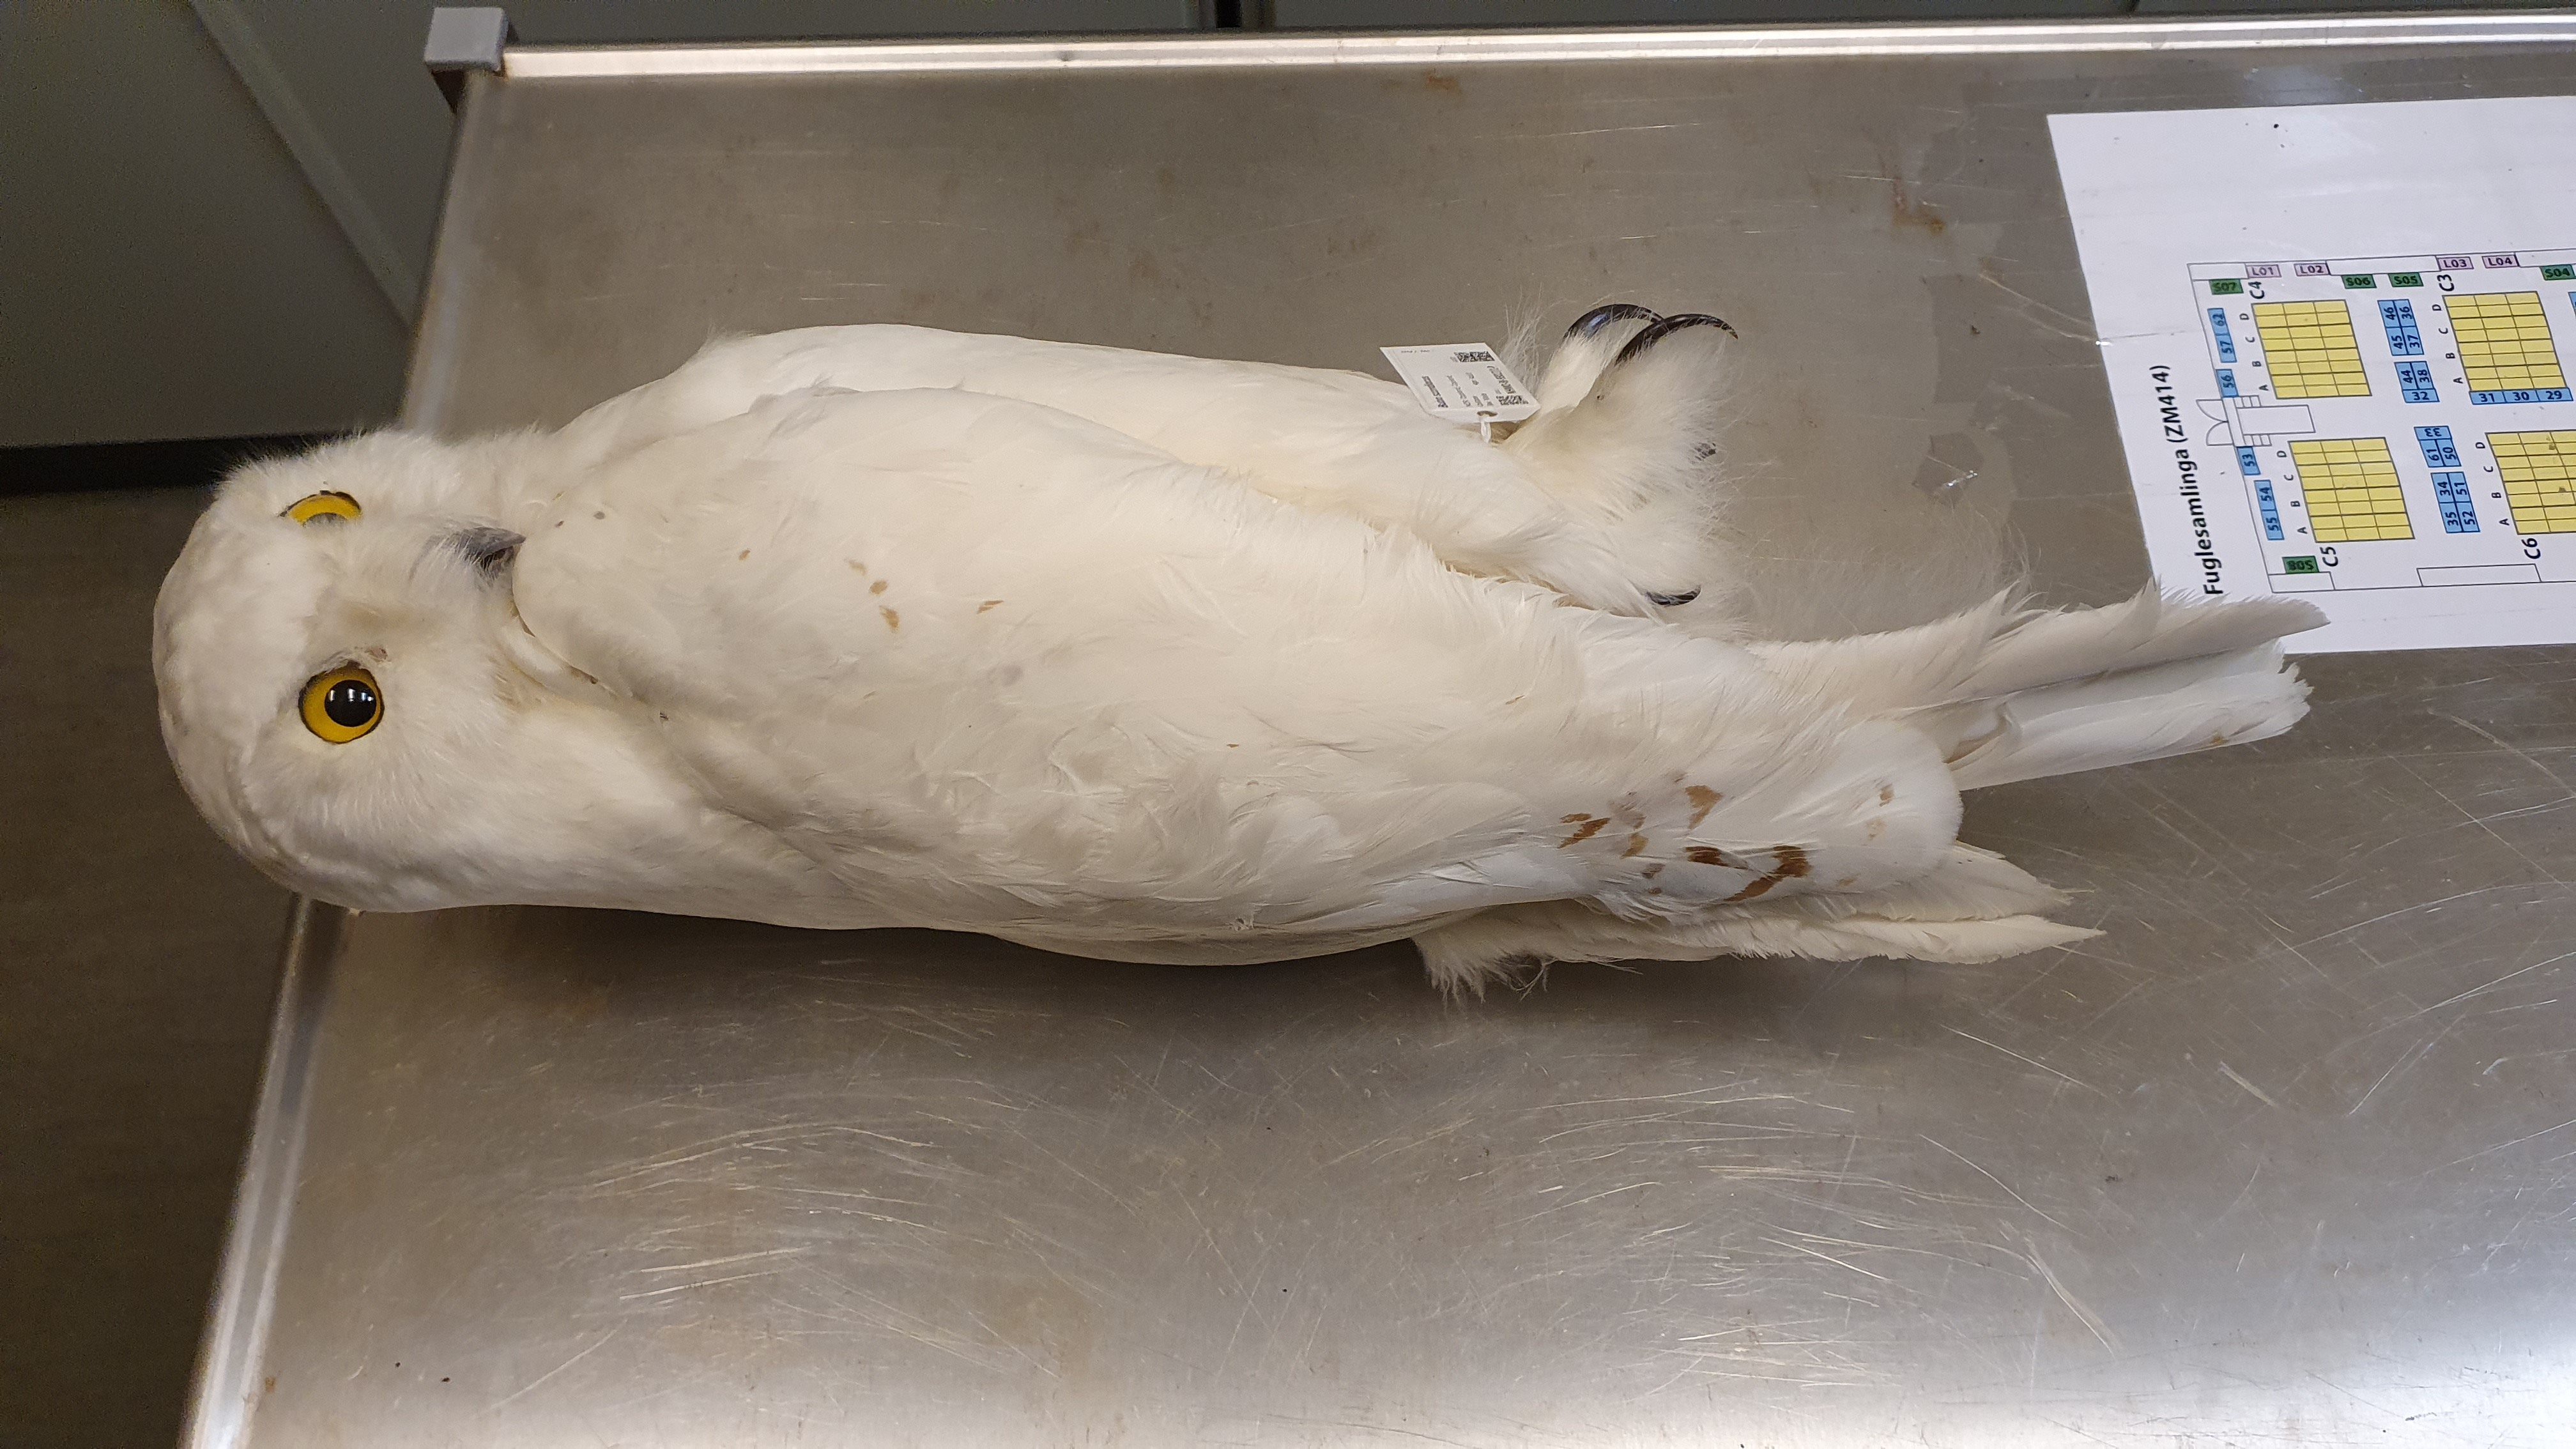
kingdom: Animalia
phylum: Chordata
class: Aves
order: Strigiformes
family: Strigidae
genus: Bubo
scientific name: Bubo scandiacus
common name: Snowy owl
